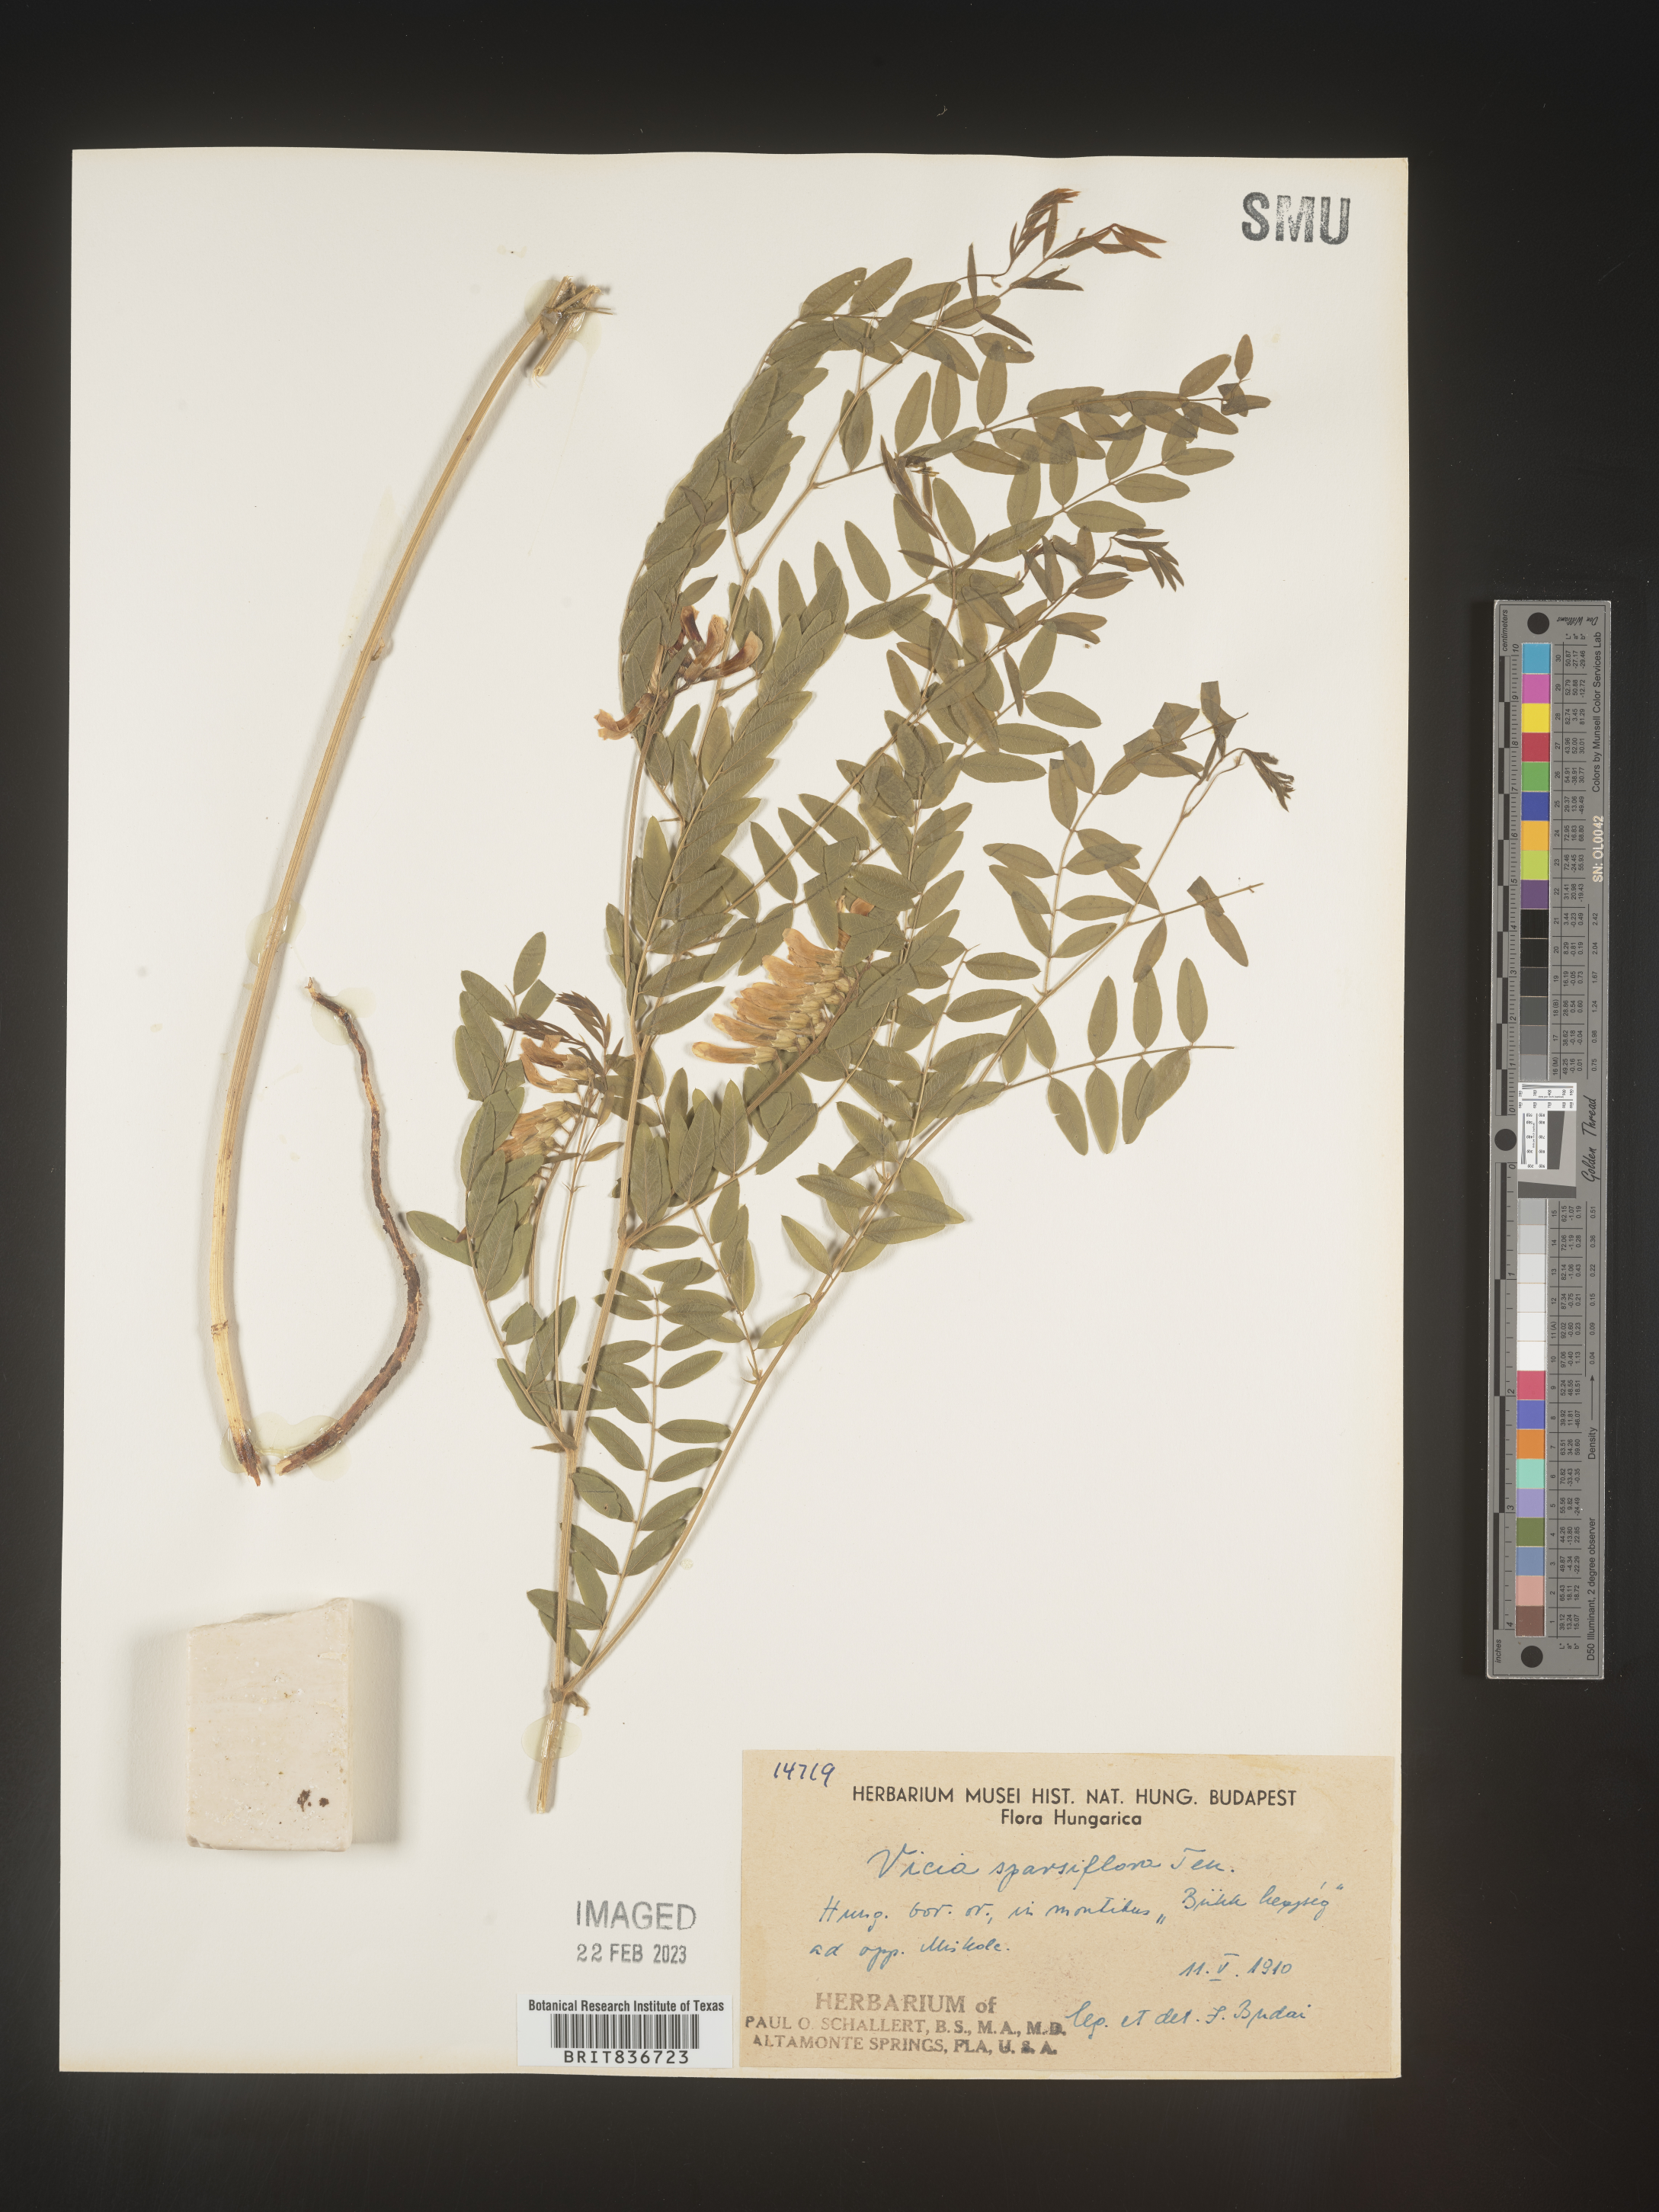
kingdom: Plantae
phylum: Tracheophyta
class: Magnoliopsida
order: Fabales
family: Fabaceae
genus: Vicia
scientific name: Vicia
